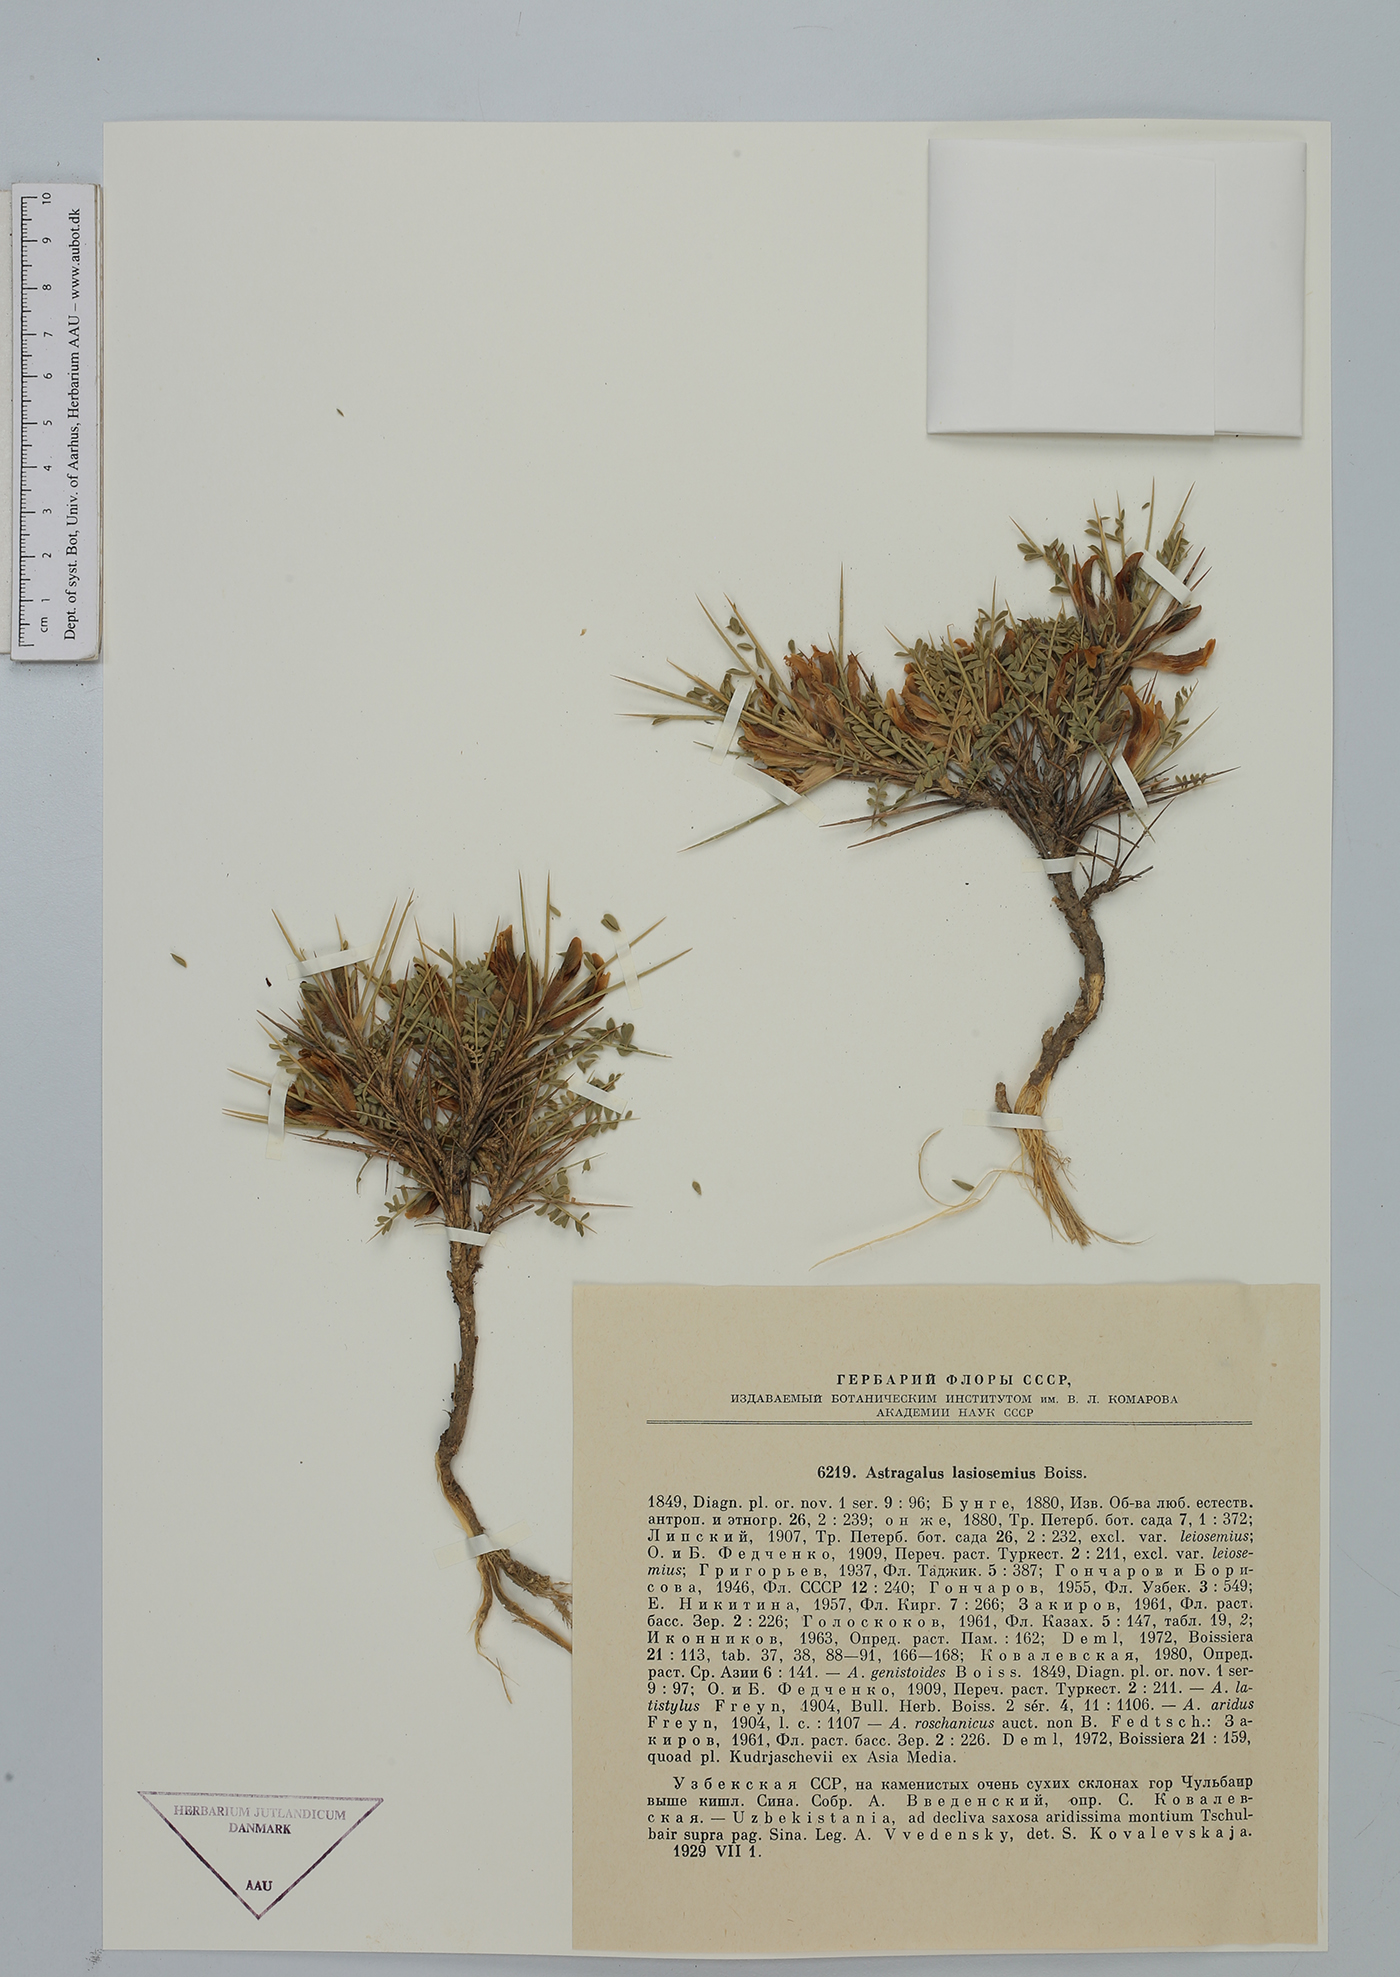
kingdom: Plantae
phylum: Tracheophyta
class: Magnoliopsida
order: Fabales
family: Fabaceae
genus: Astragalus
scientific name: Astragalus lasiosemius
